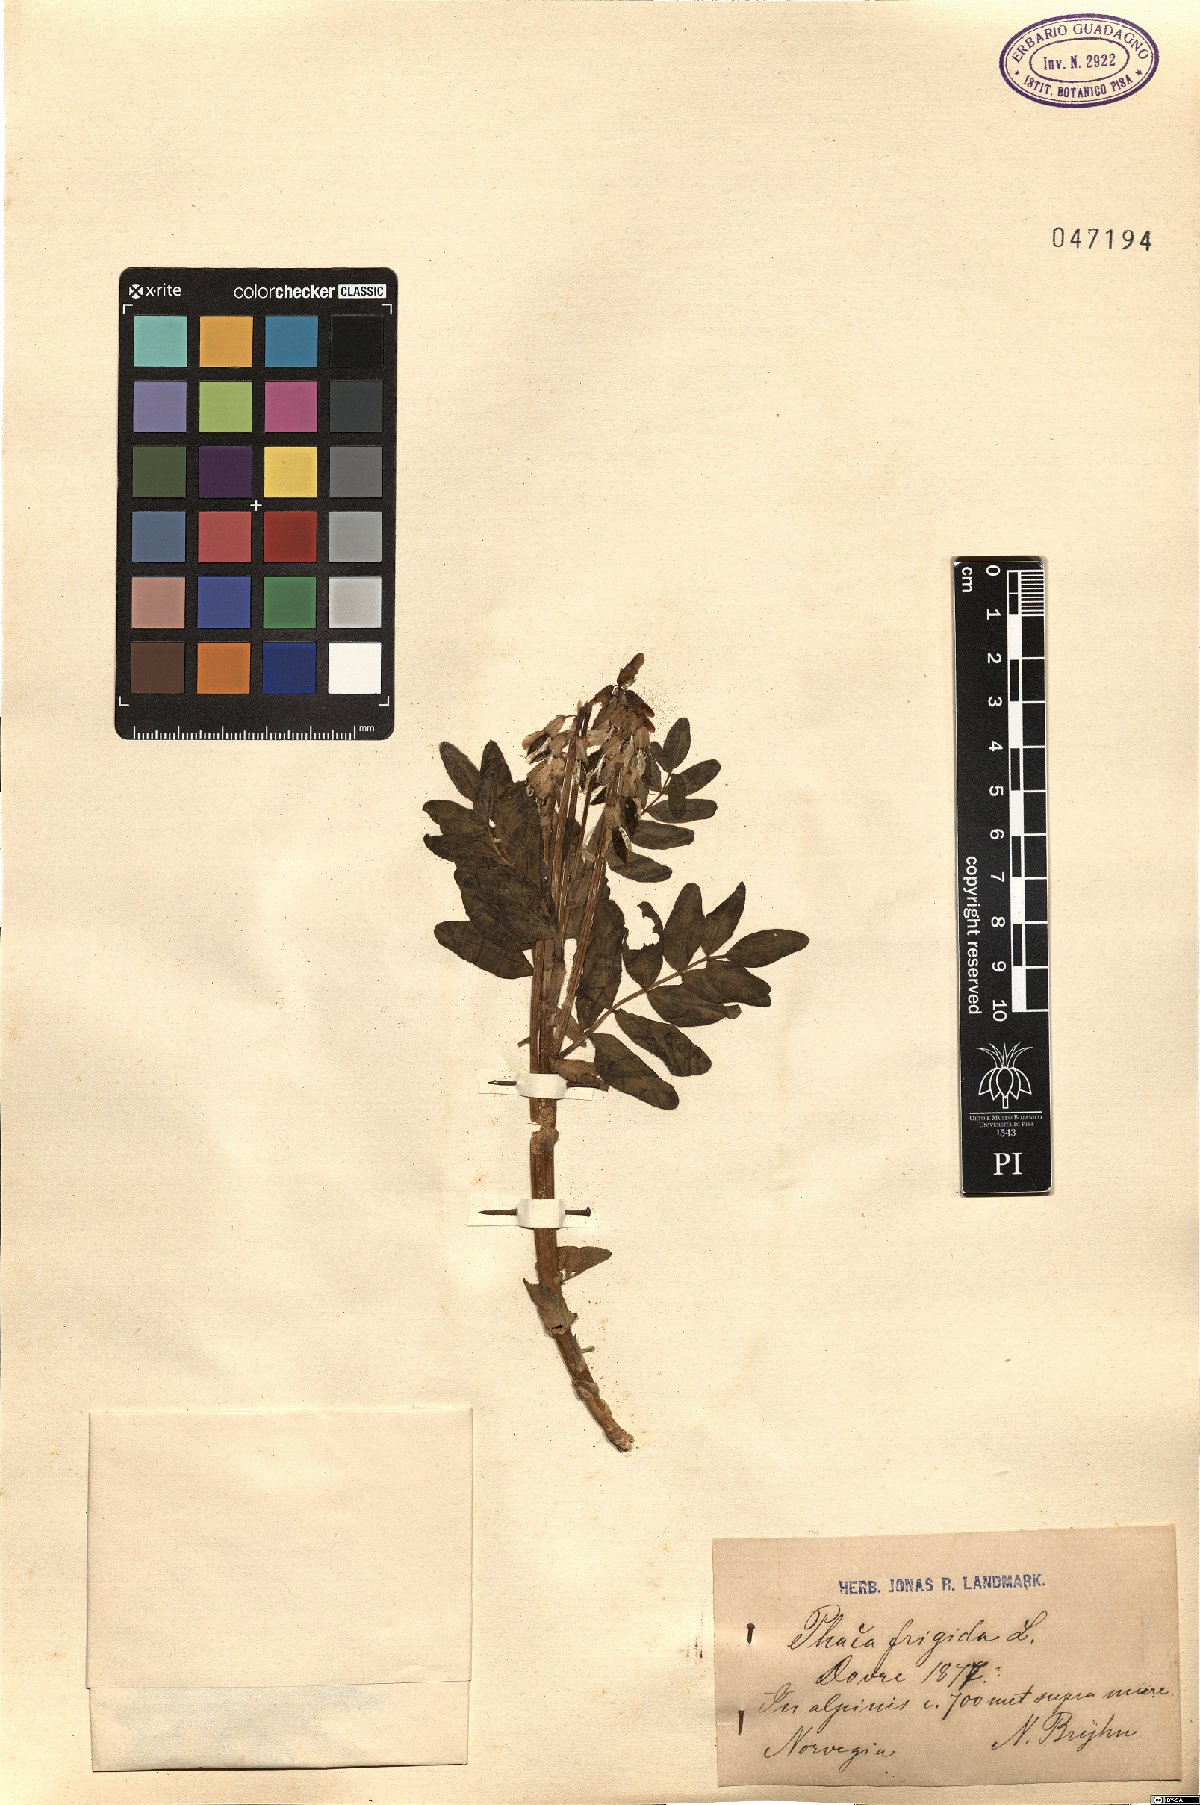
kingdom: Plantae
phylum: Tracheophyta
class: Magnoliopsida
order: Fabales
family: Fabaceae
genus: Astragalus
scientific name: Astragalus frigidus
